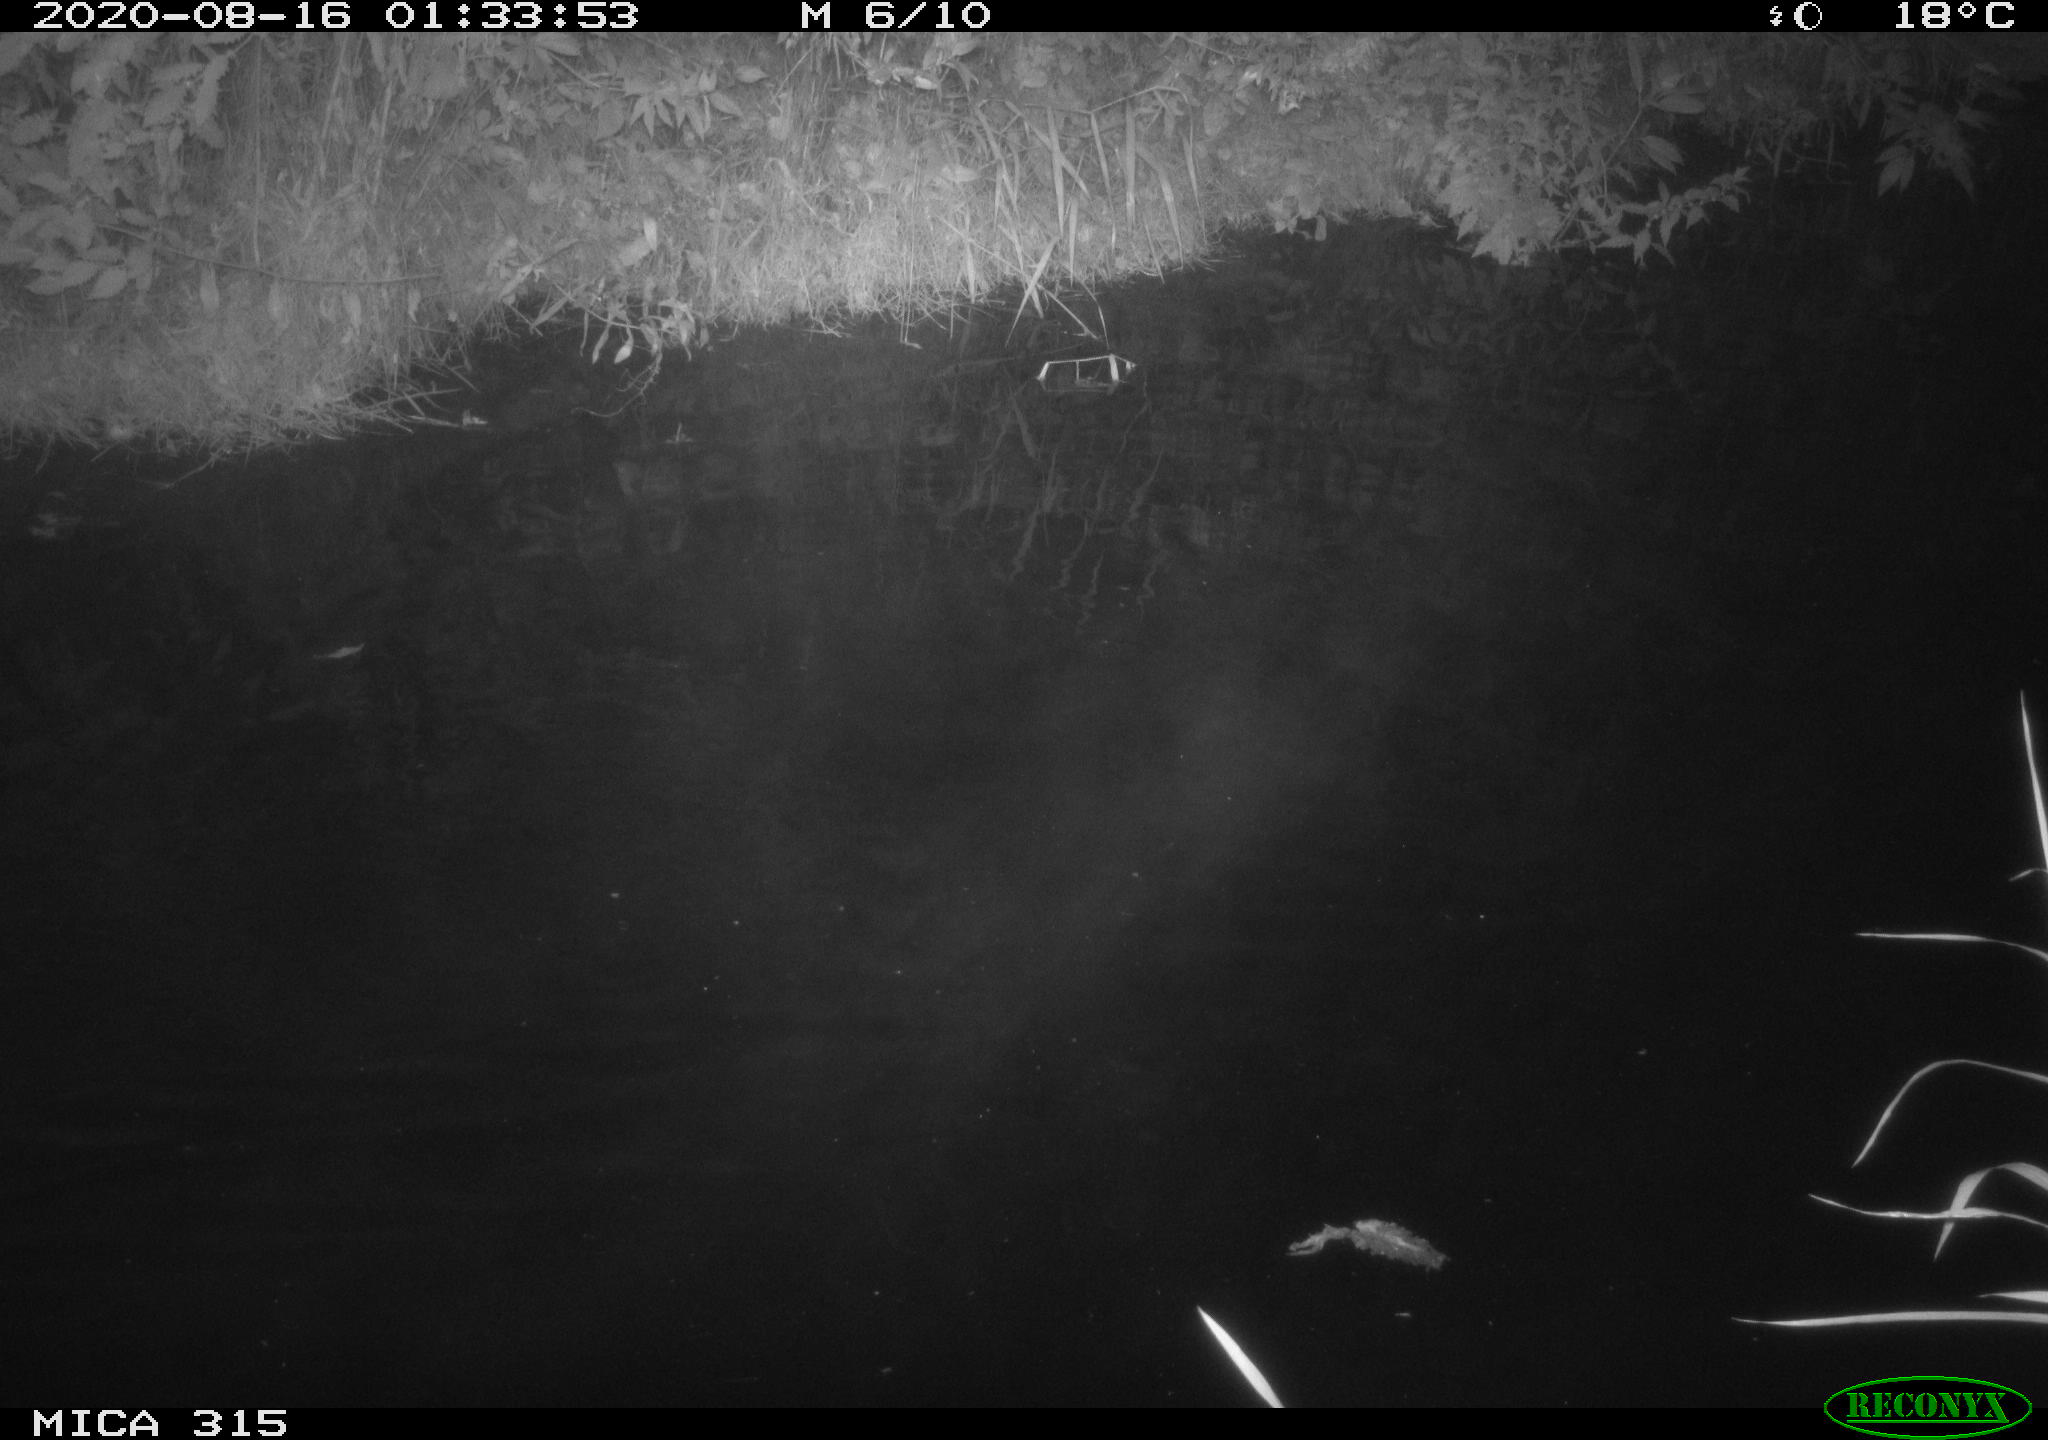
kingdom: Animalia
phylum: Chordata
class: Aves
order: Anseriformes
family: Anatidae
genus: Anas
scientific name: Anas platyrhynchos
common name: Mallard
